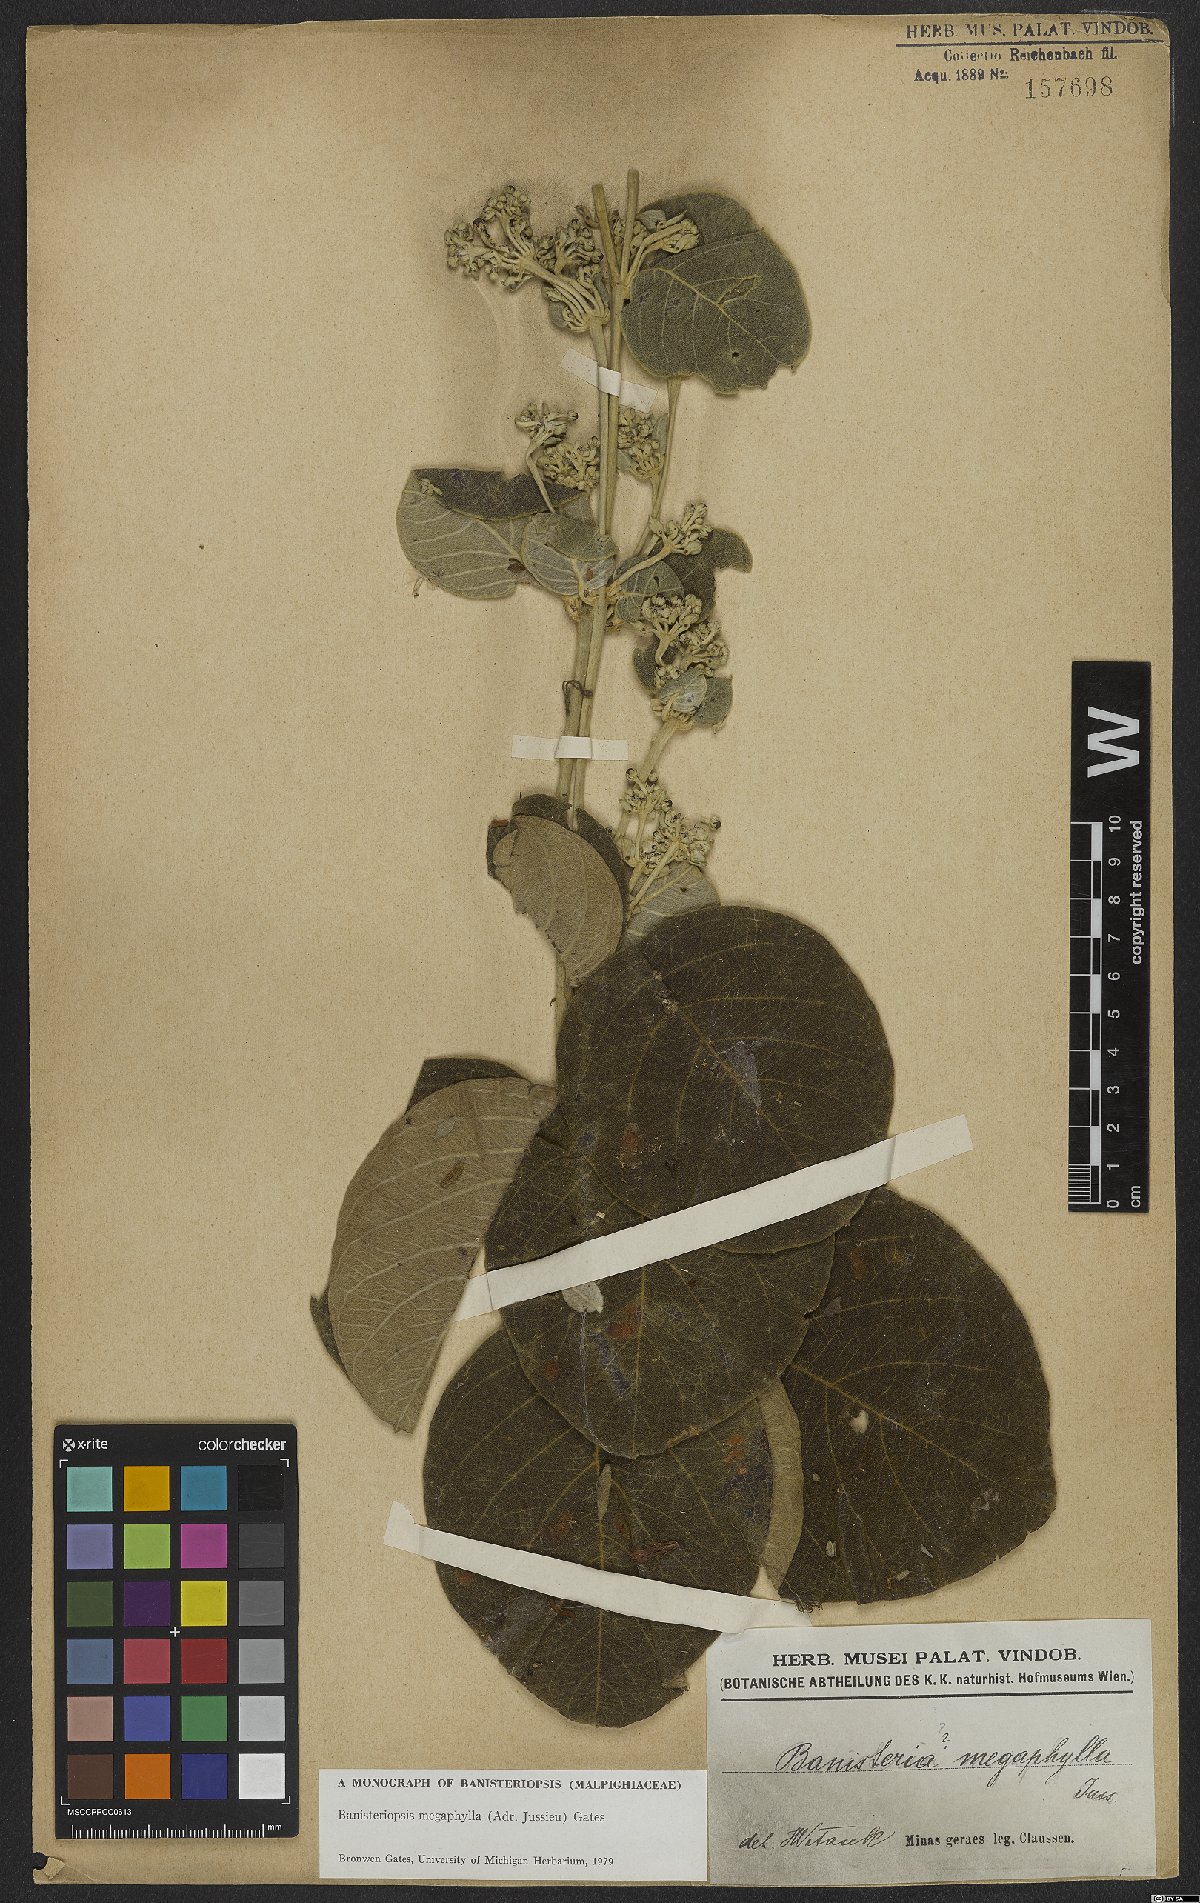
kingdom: Plantae
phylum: Tracheophyta
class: Magnoliopsida
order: Malpighiales
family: Malpighiaceae
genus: Banisteriopsis
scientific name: Banisteriopsis megaphylla
